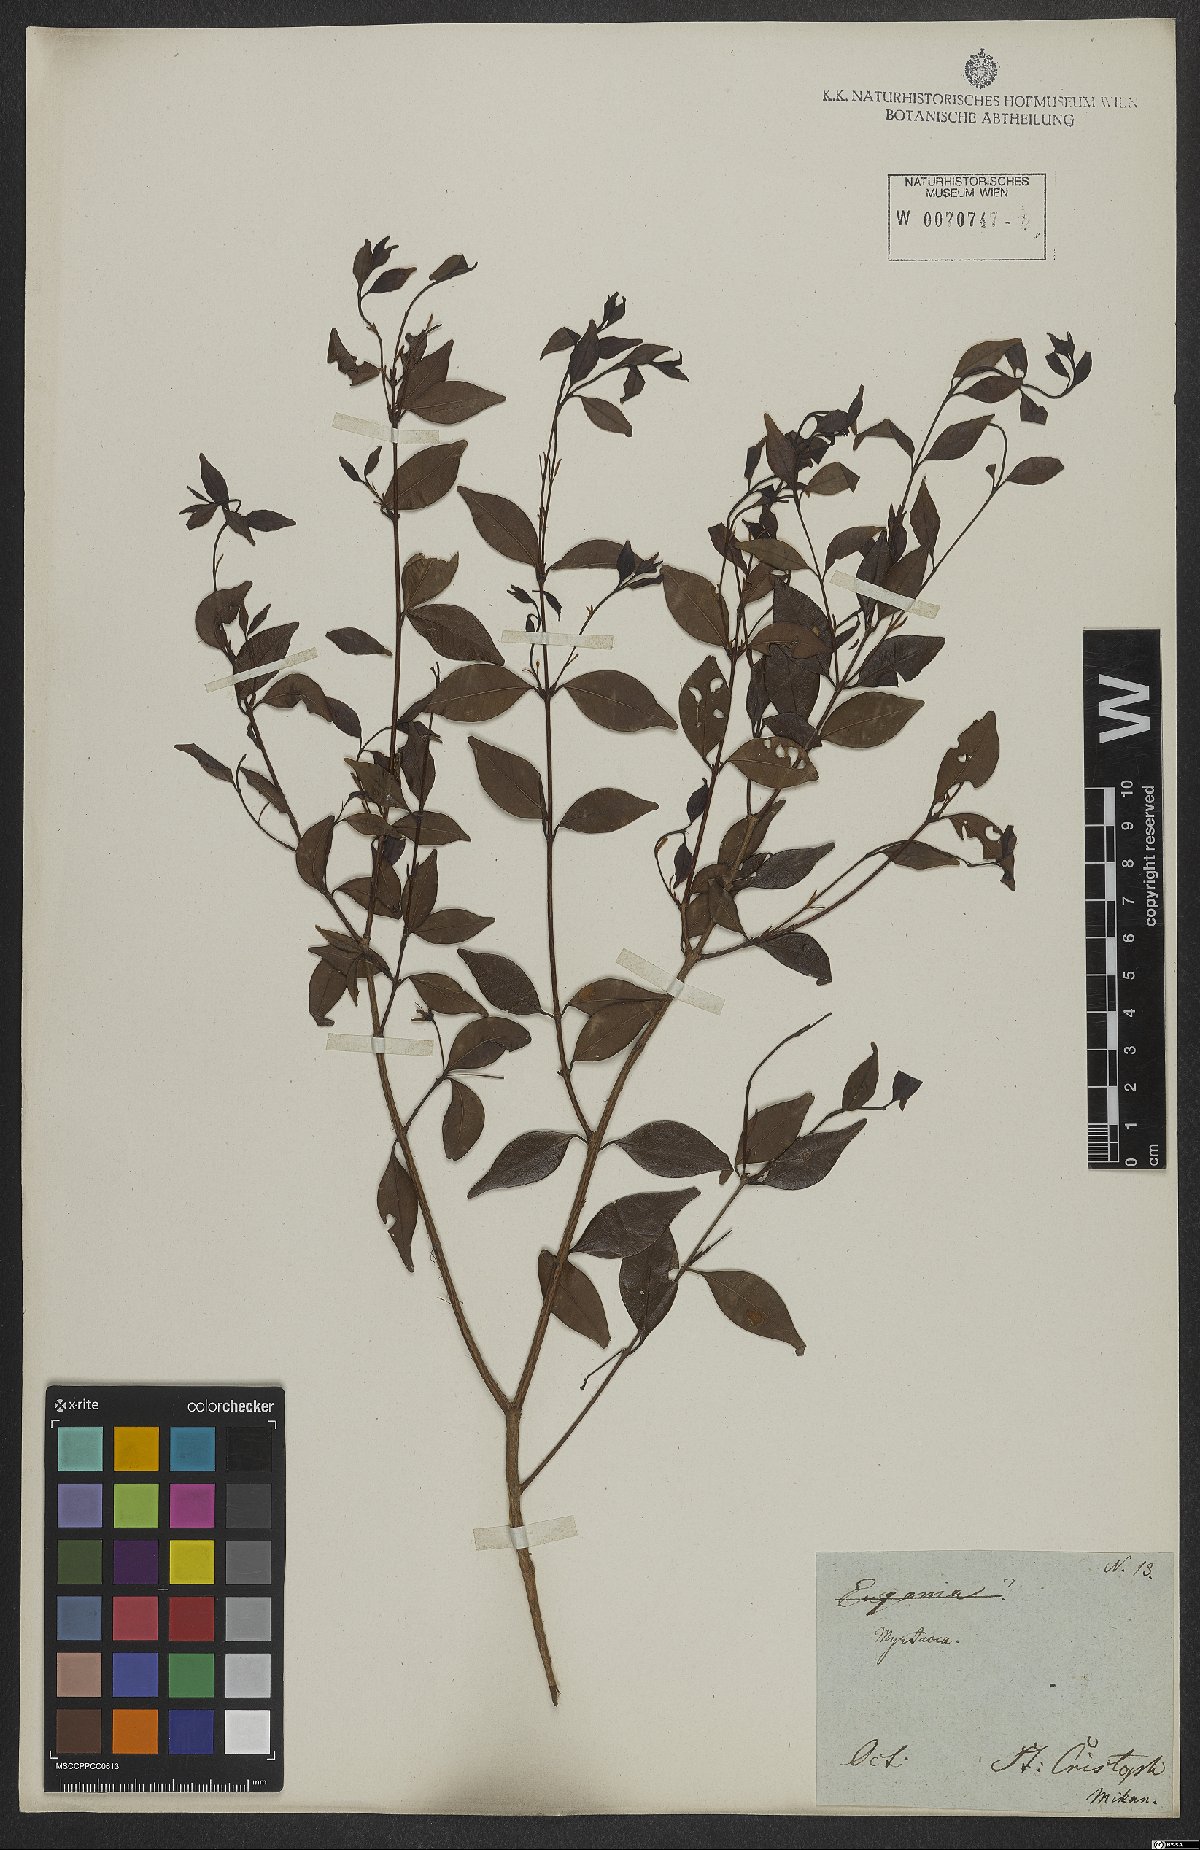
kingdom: Plantae
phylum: Tracheophyta
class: Magnoliopsida
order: Myrtales
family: Myrtaceae
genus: Eugenia
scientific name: Eugenia sulcata
